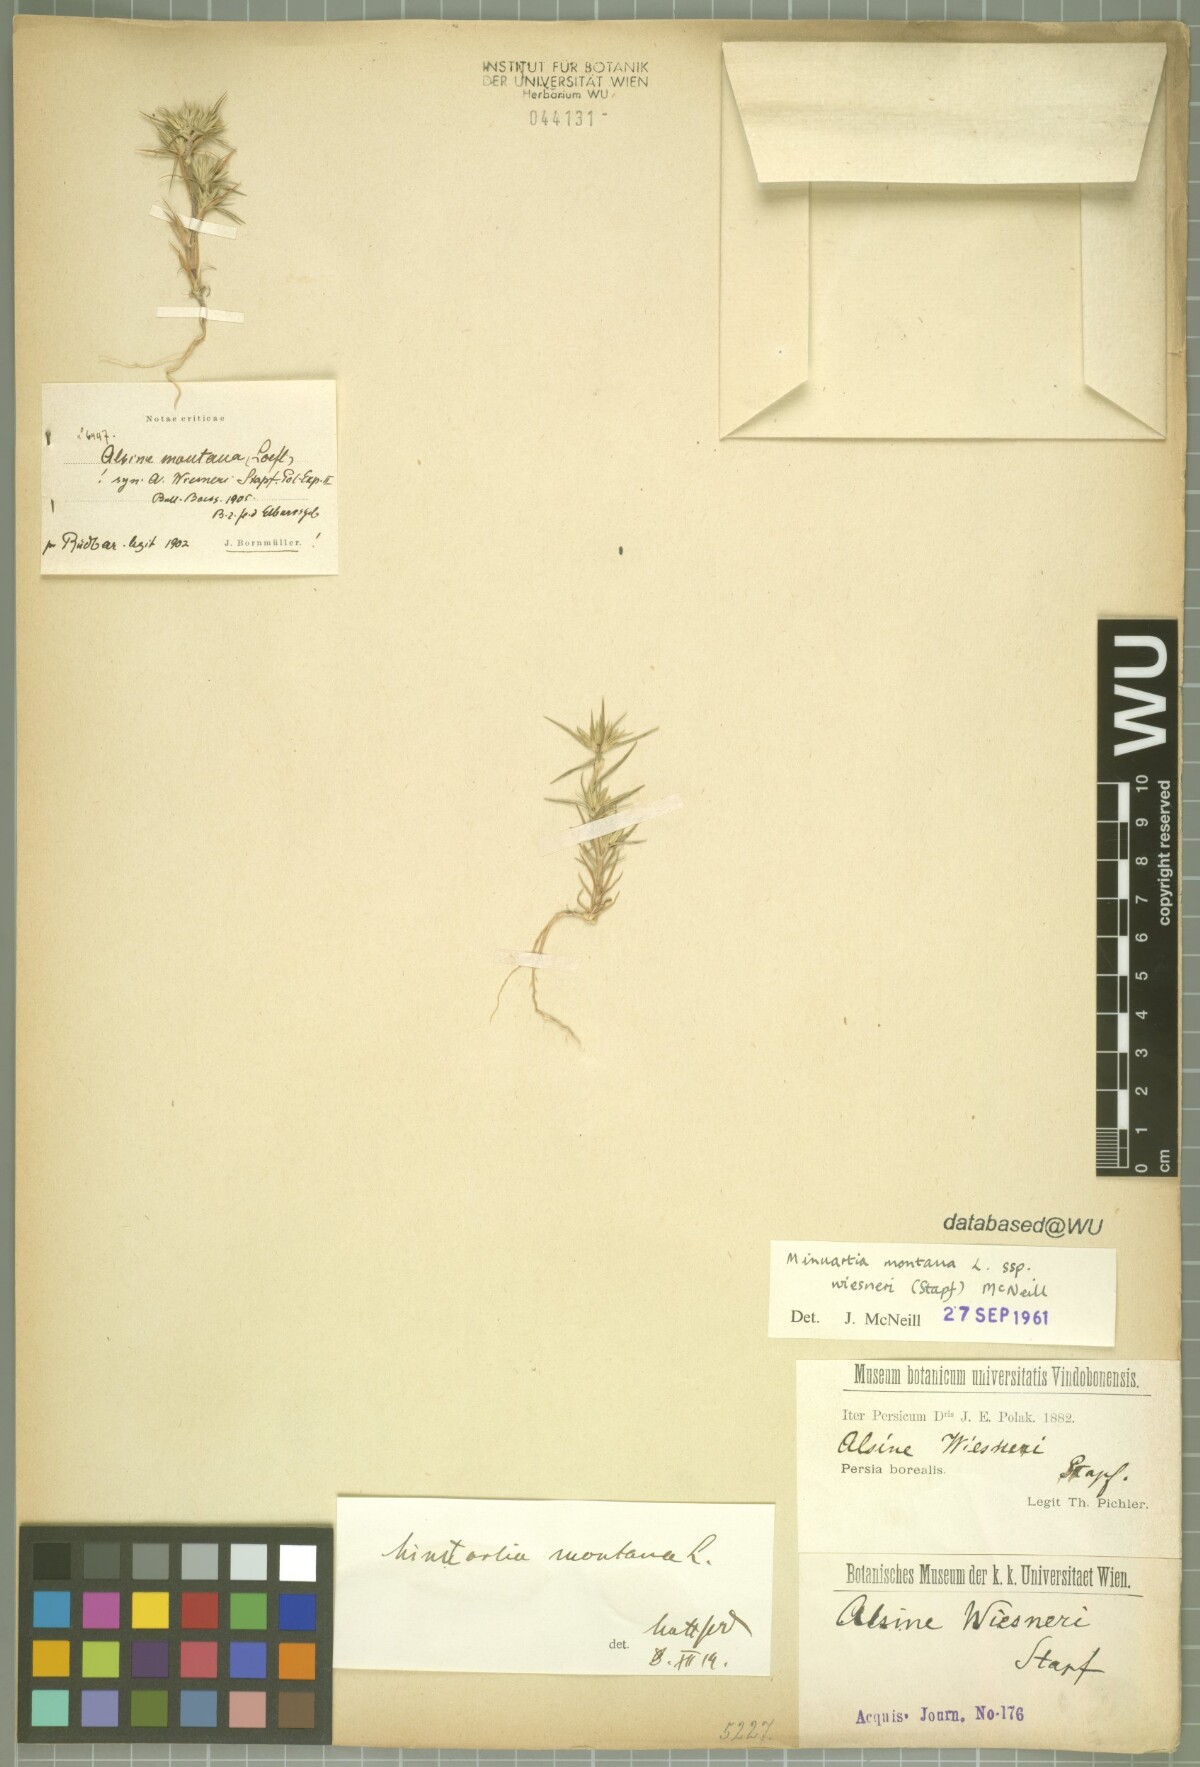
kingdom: Plantae
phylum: Tracheophyta
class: Magnoliopsida
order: Caryophyllales
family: Caryophyllaceae
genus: Minuartia
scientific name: Minuartia montana
